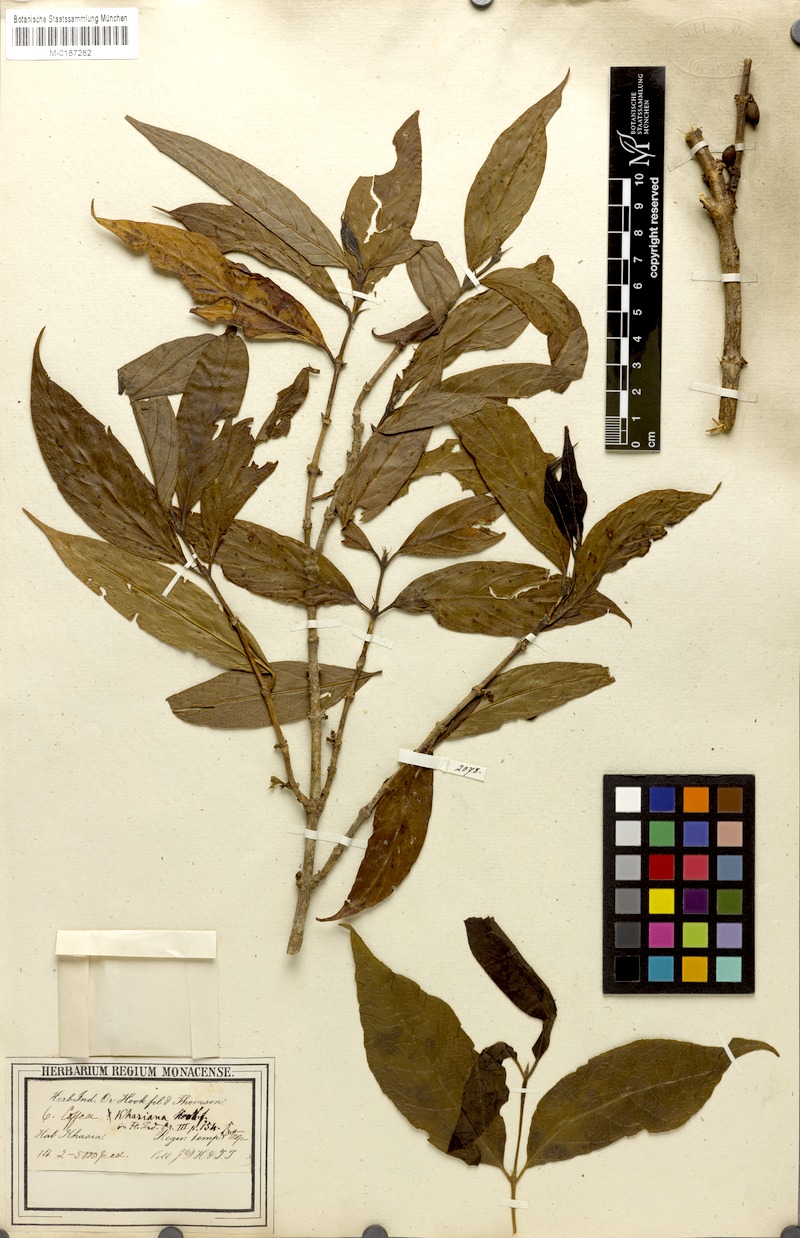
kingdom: Plantae
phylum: Tracheophyta
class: Magnoliopsida
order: Gentianales
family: Rubiaceae
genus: Nostolachma
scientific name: Nostolachma triflorum
